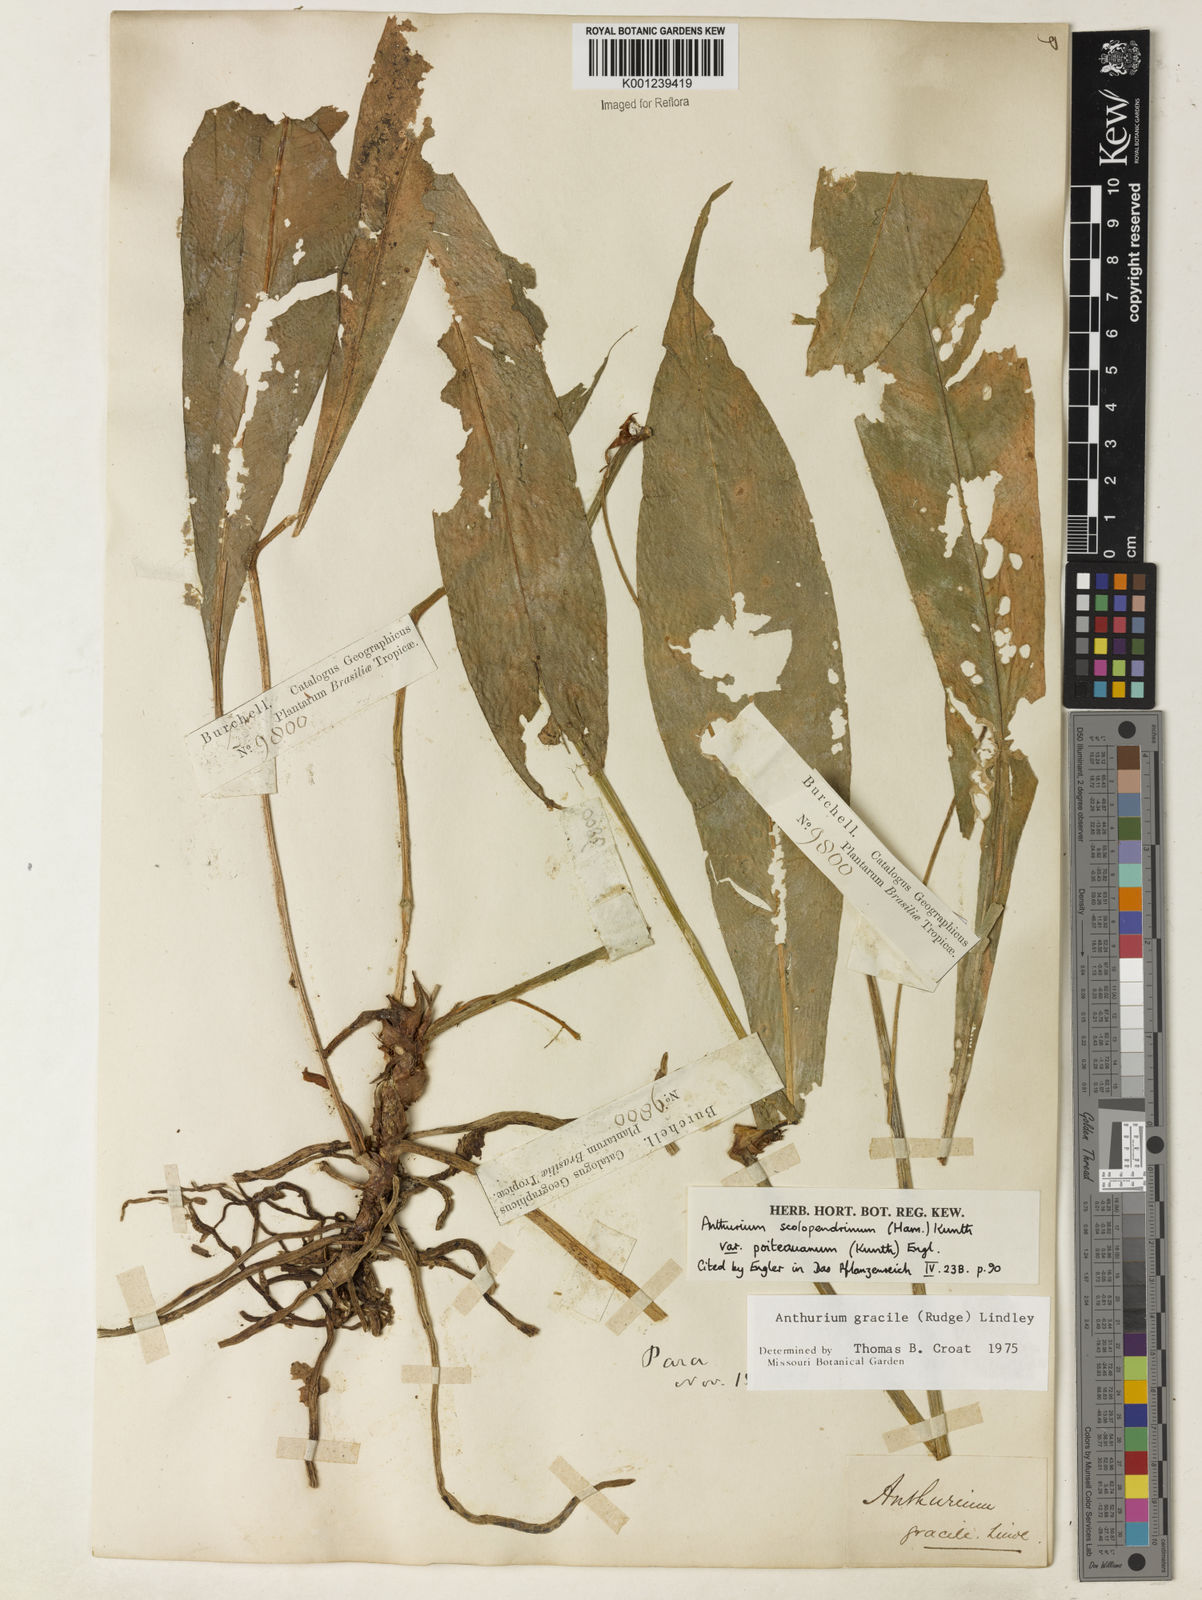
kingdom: Plantae
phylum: Tracheophyta
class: Liliopsida
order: Alismatales
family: Araceae
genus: Anthurium
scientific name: Anthurium gracile
